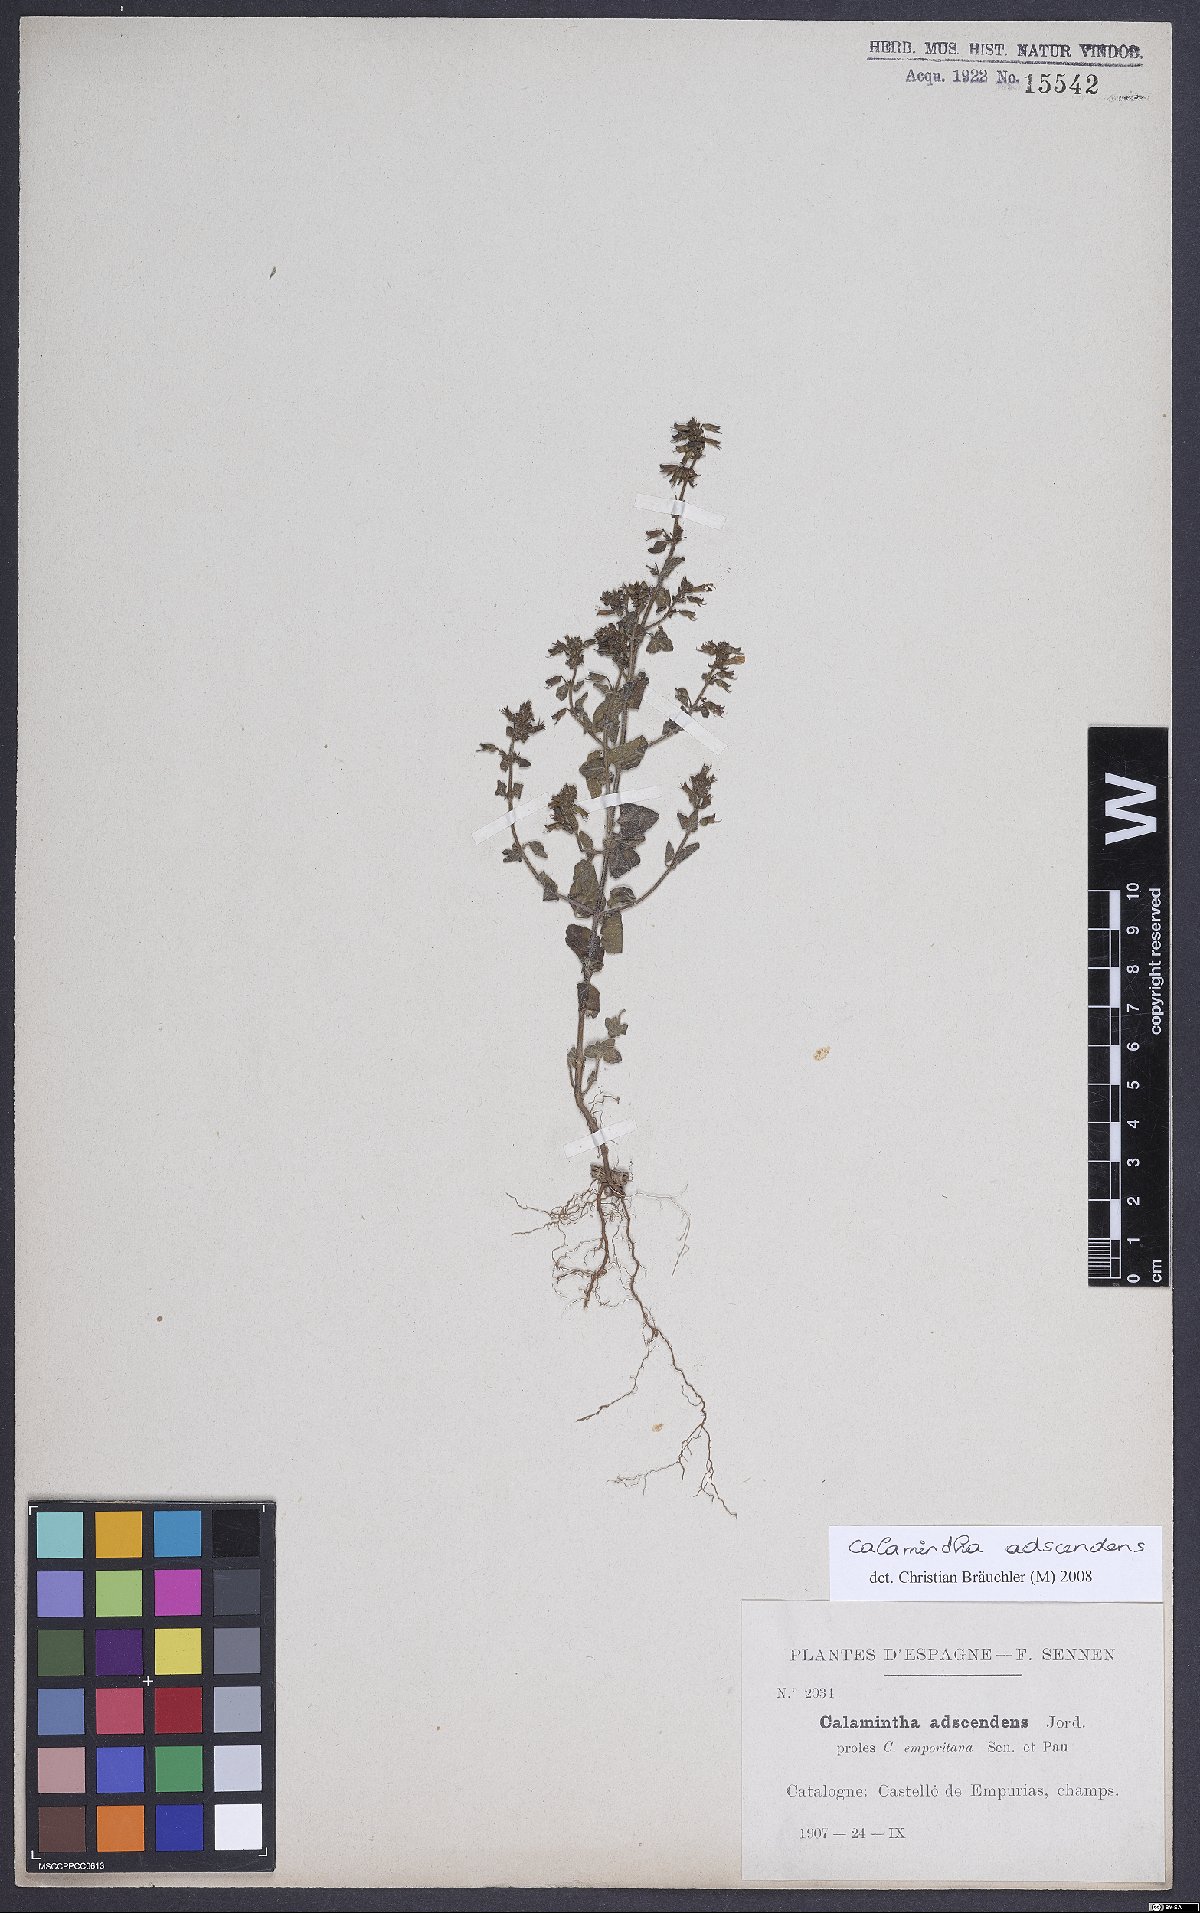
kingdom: Plantae
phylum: Tracheophyta
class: Magnoliopsida
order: Lamiales
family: Lamiaceae
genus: Clinopodium
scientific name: Clinopodium menthifolium
